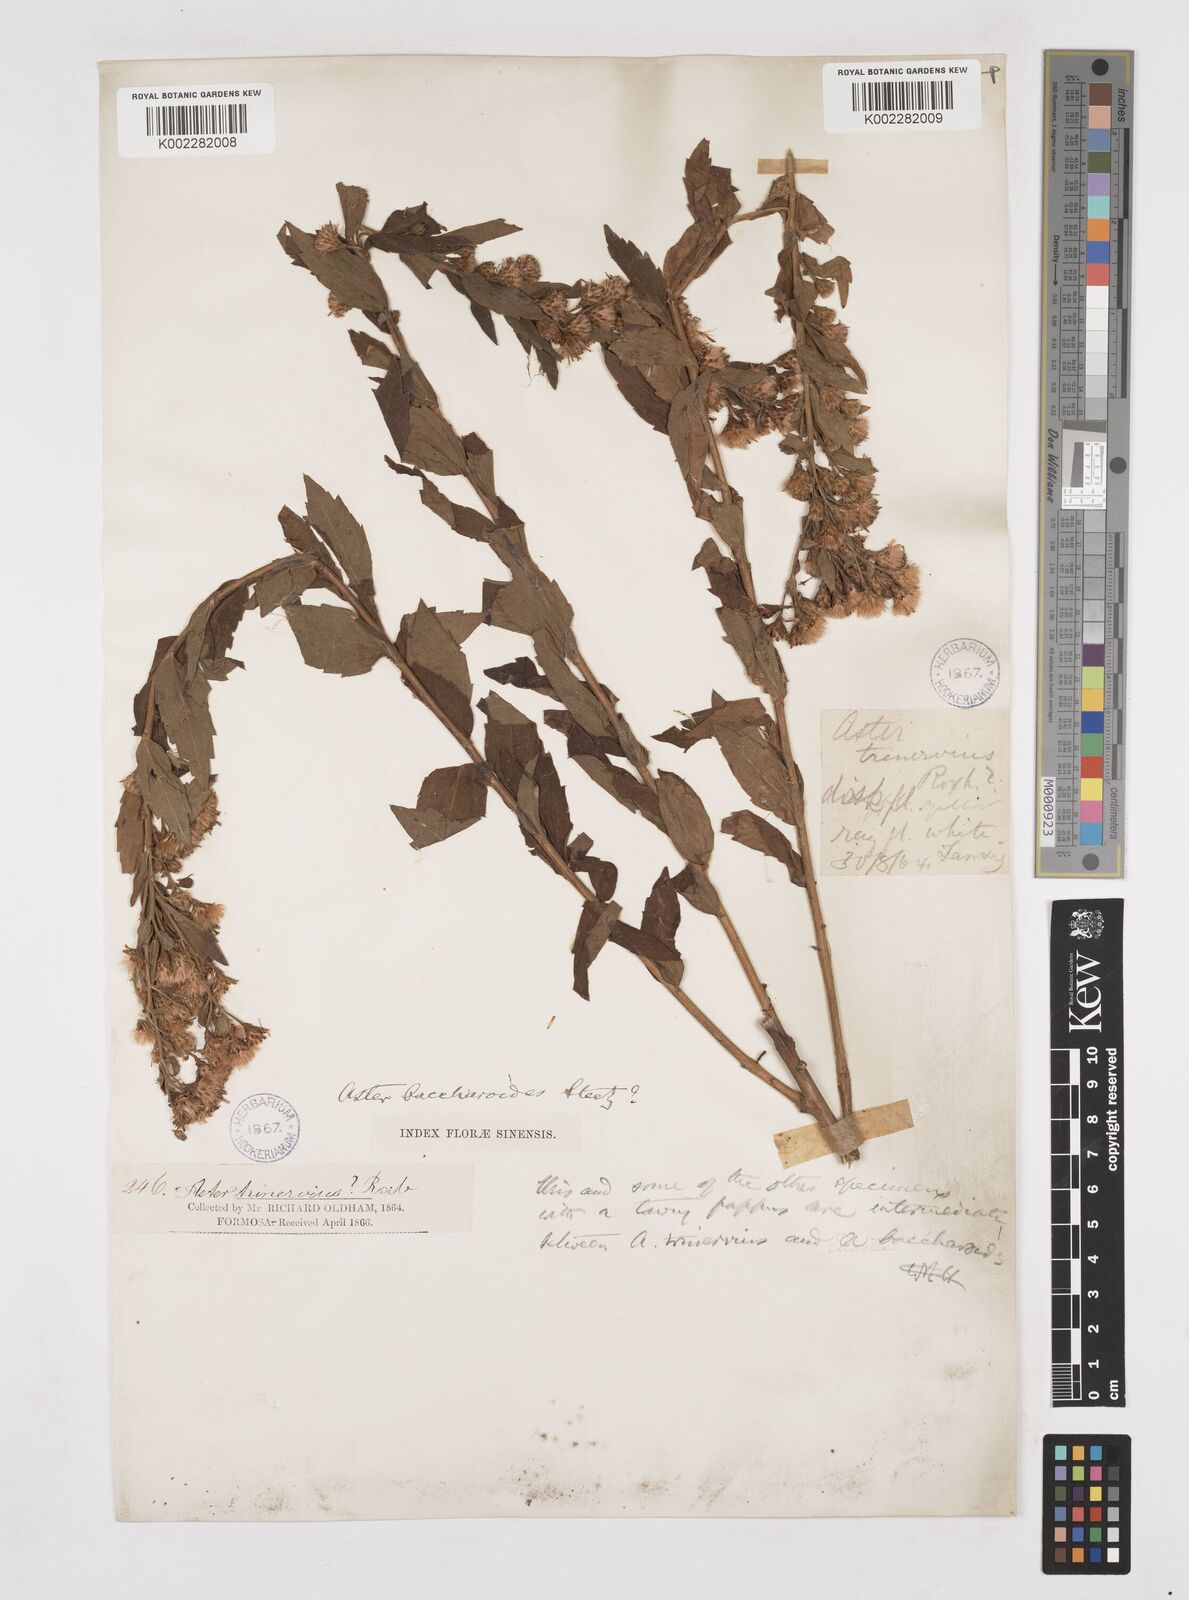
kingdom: Plantae
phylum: Tracheophyta
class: Magnoliopsida
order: Asterales
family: Asteraceae
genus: Aster
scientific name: Aster baccharoides
